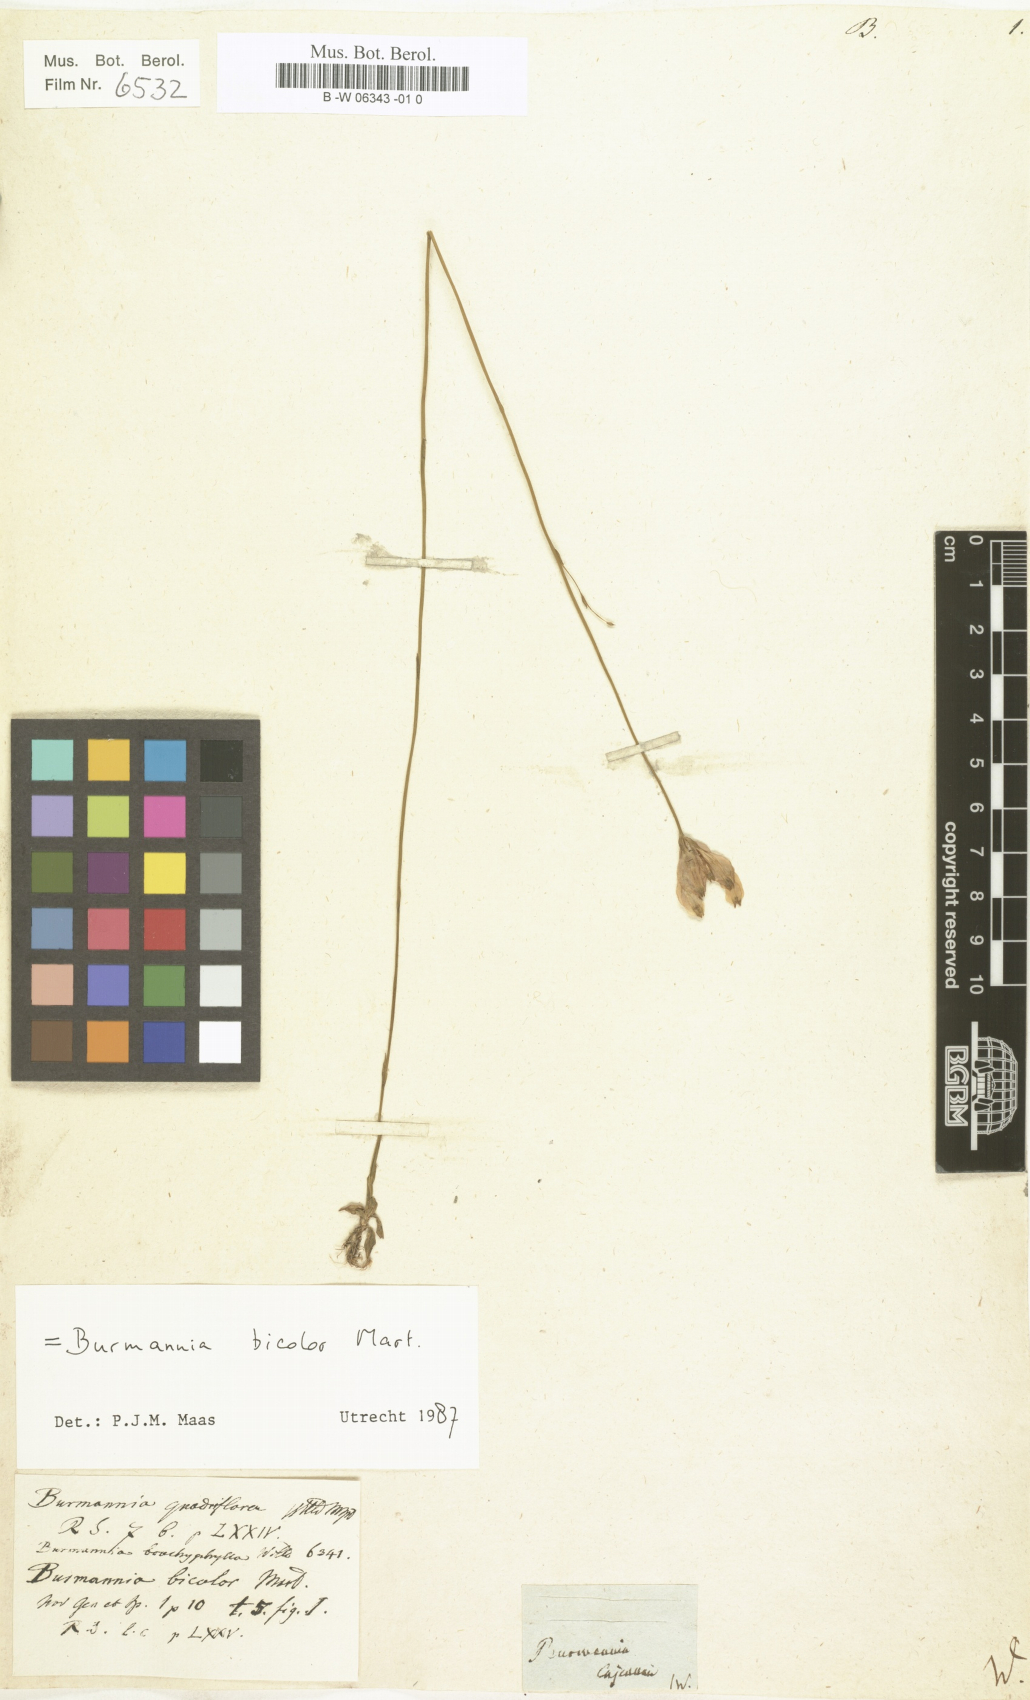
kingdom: Plantae
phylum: Tracheophyta
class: Liliopsida
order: Dioscoreales
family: Burmanniaceae
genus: Burmannia
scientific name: Burmannia bicolor
